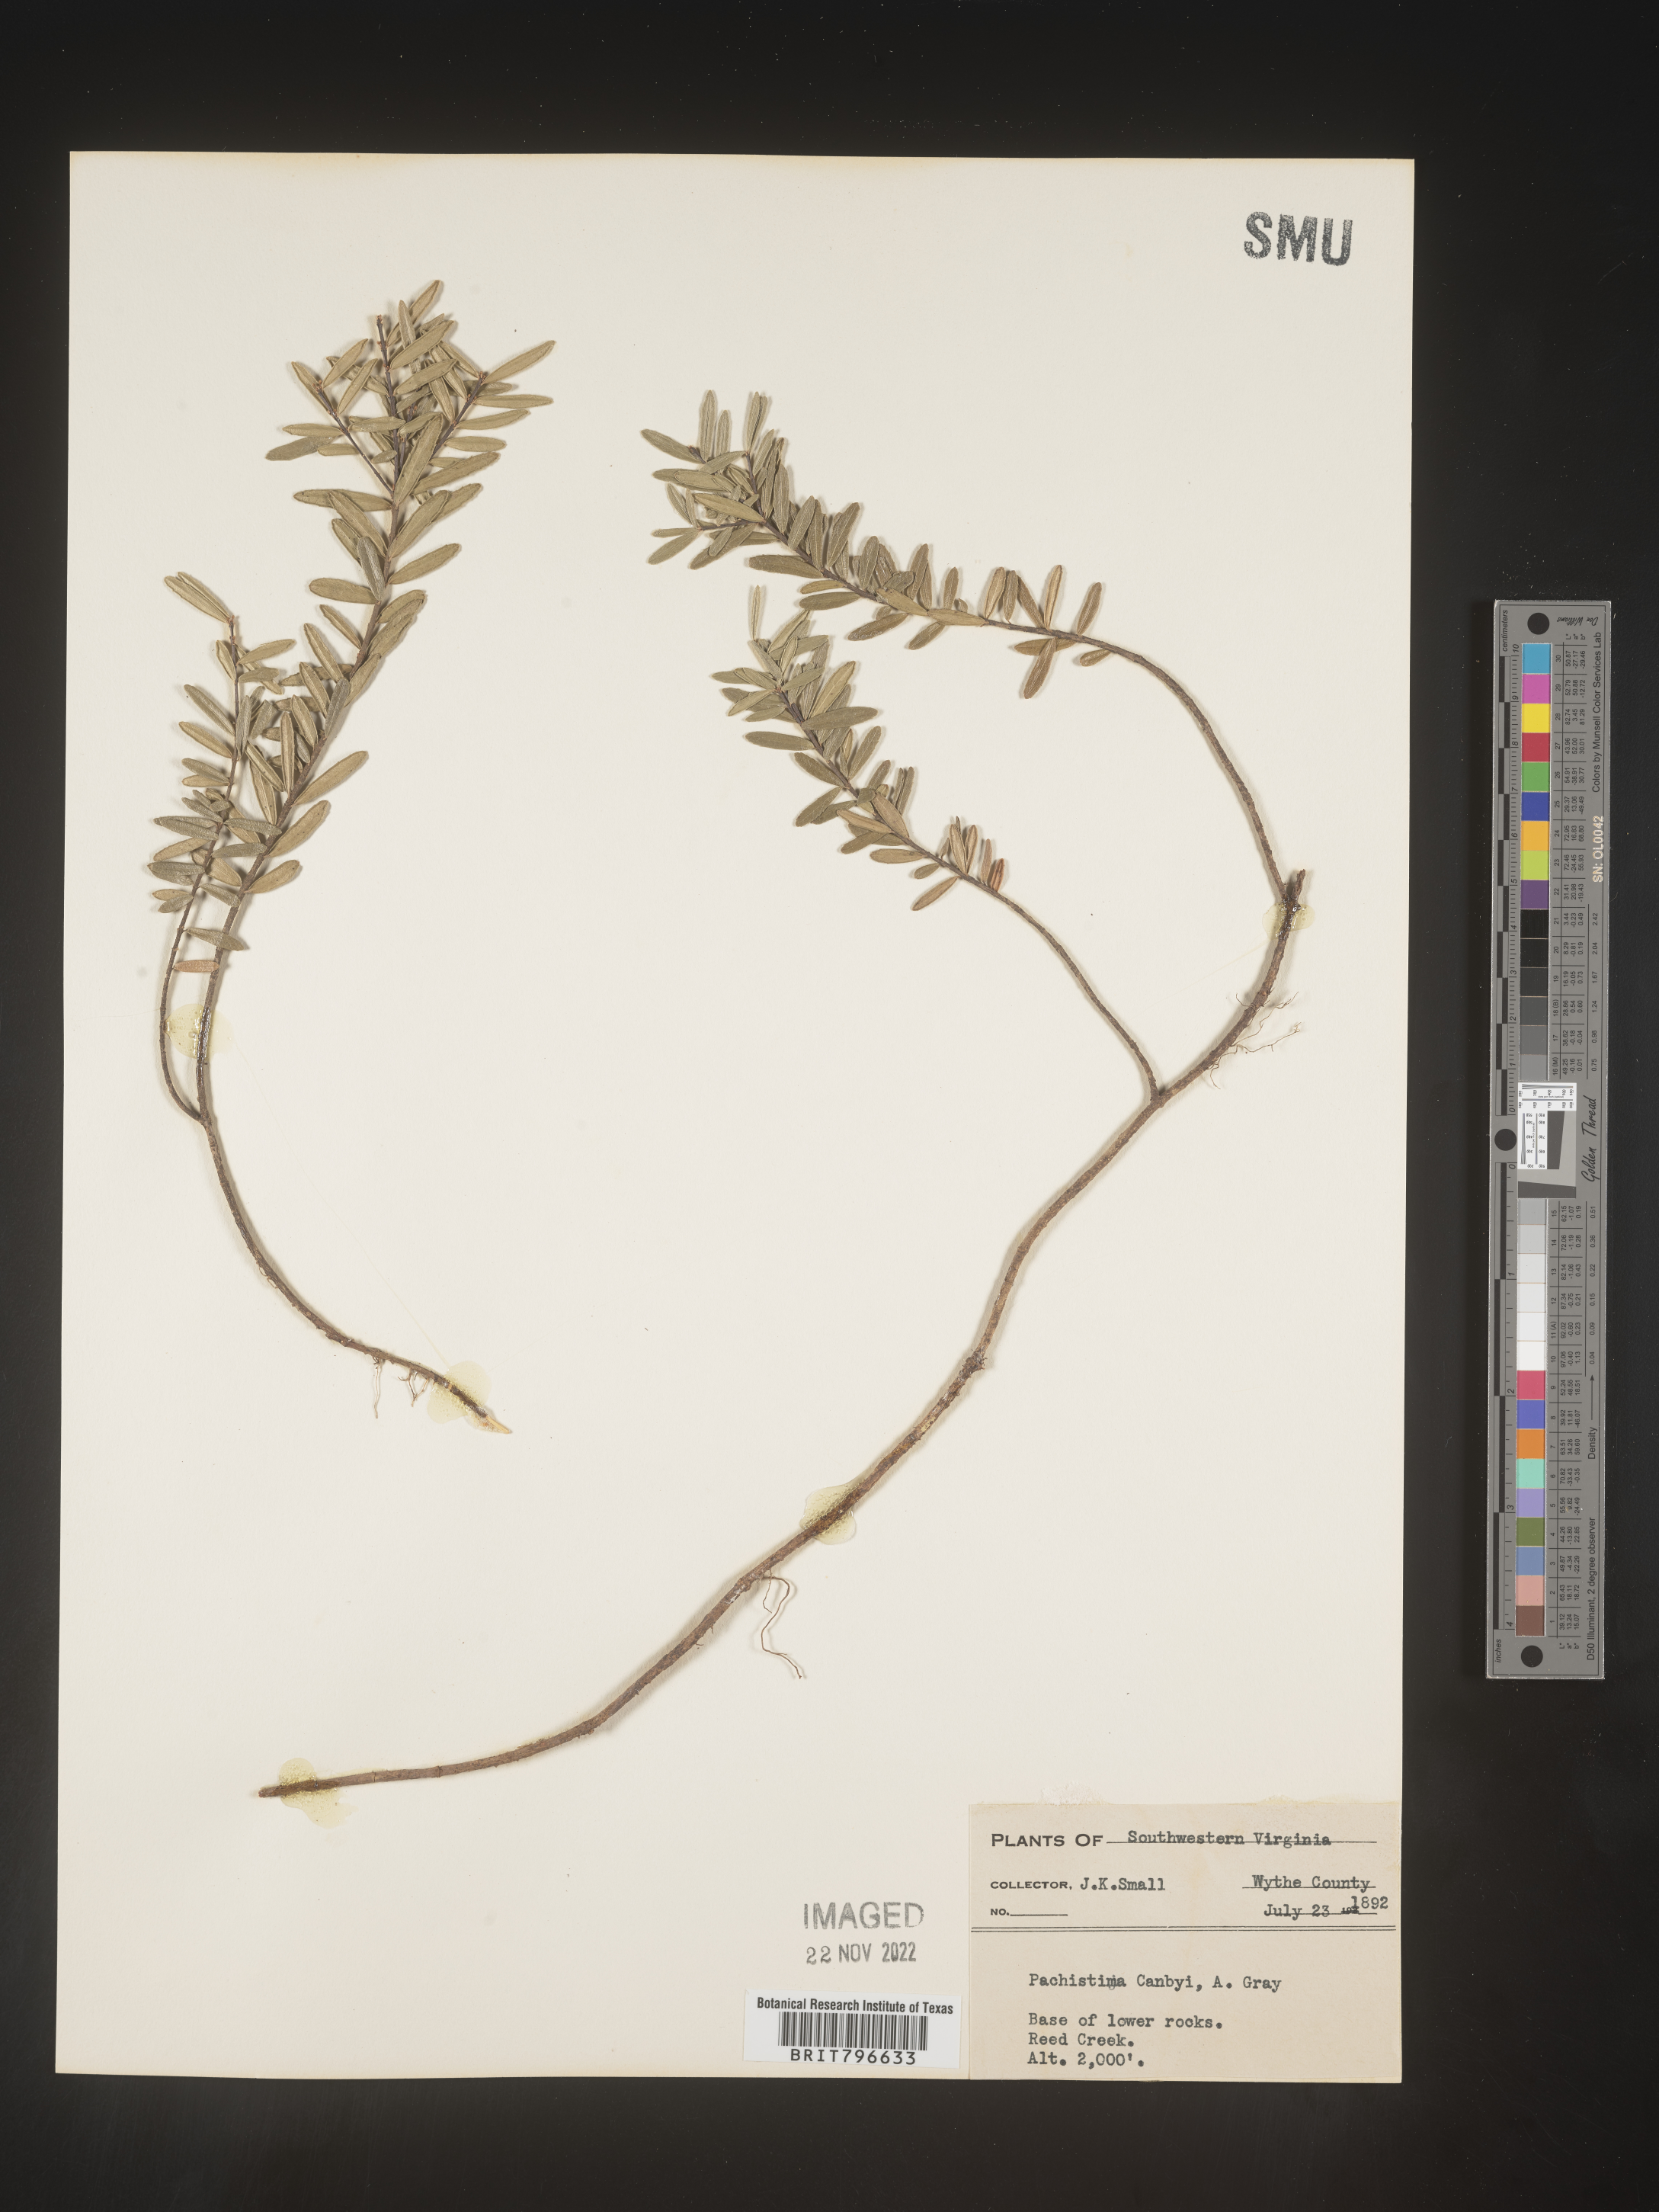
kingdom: Plantae
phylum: Tracheophyta
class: Magnoliopsida
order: Celastrales
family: Celastraceae
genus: Paxistima
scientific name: Paxistima canbyi
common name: Cliffgreen
